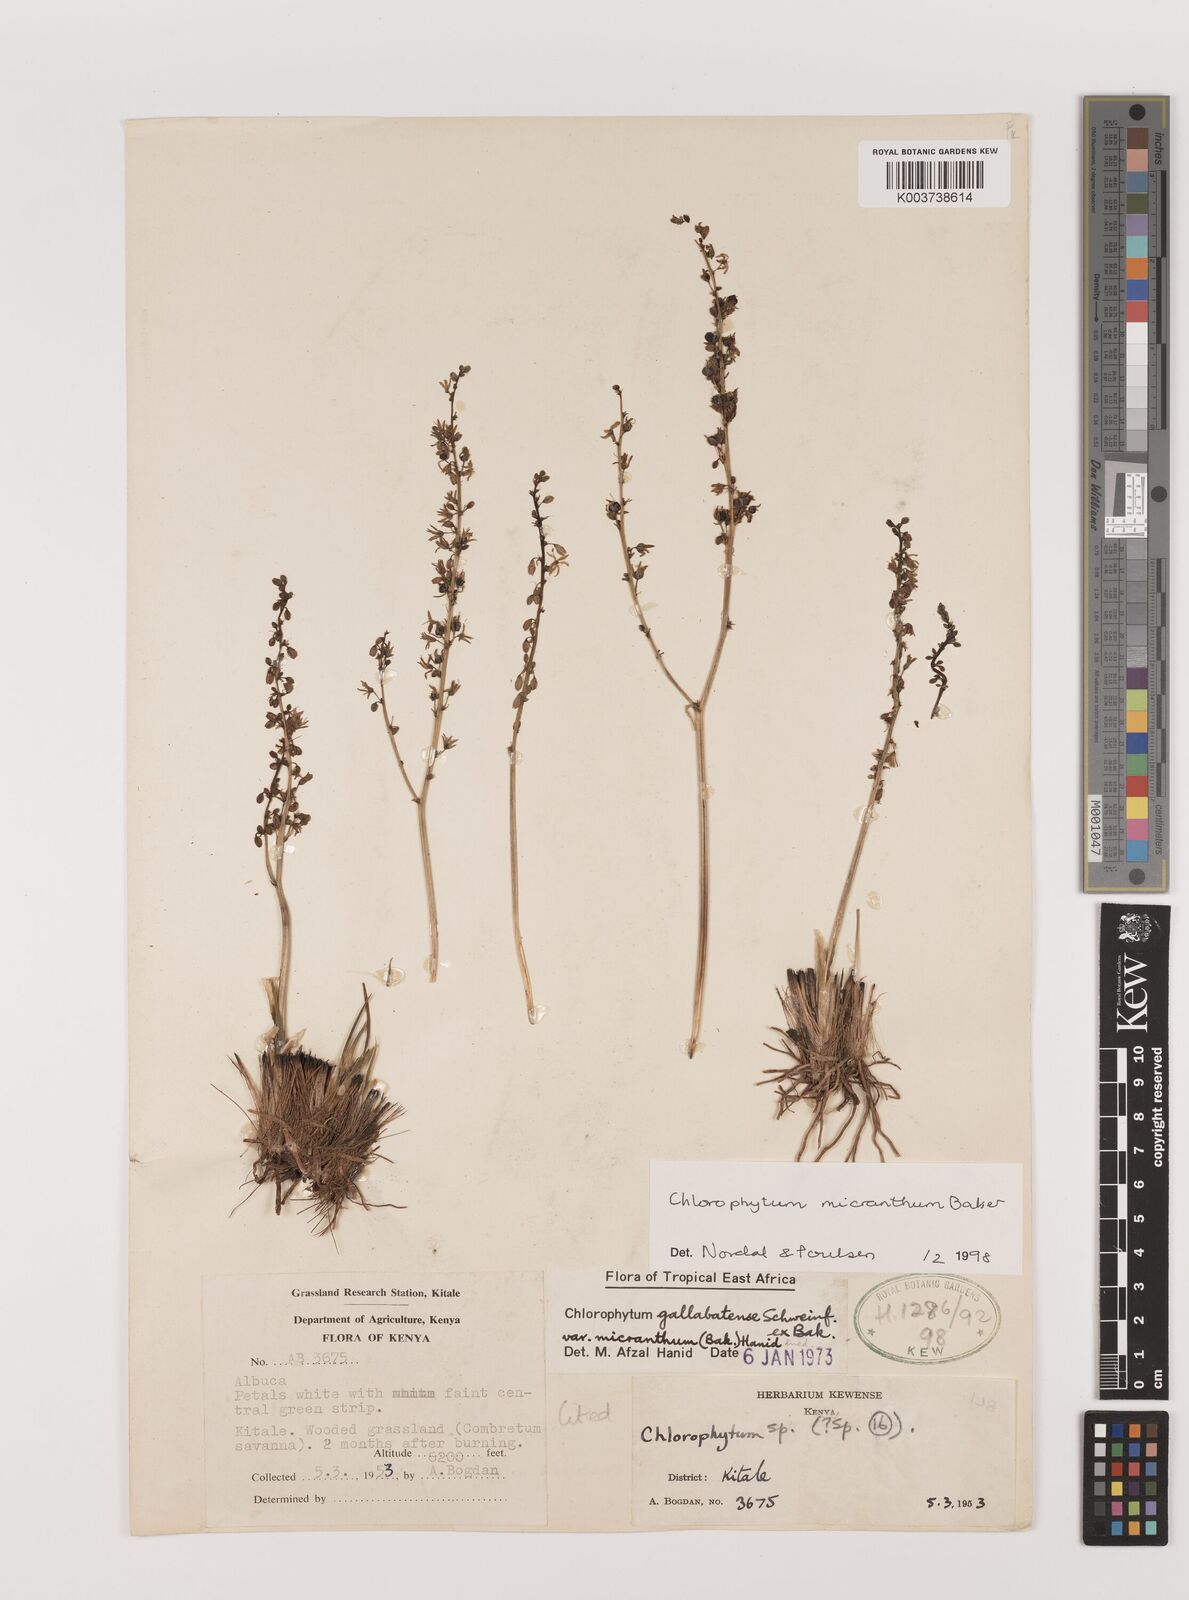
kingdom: Plantae
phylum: Tracheophyta
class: Liliopsida
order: Asparagales
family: Asparagaceae
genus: Chlorophytum
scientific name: Chlorophytum gallabatense
